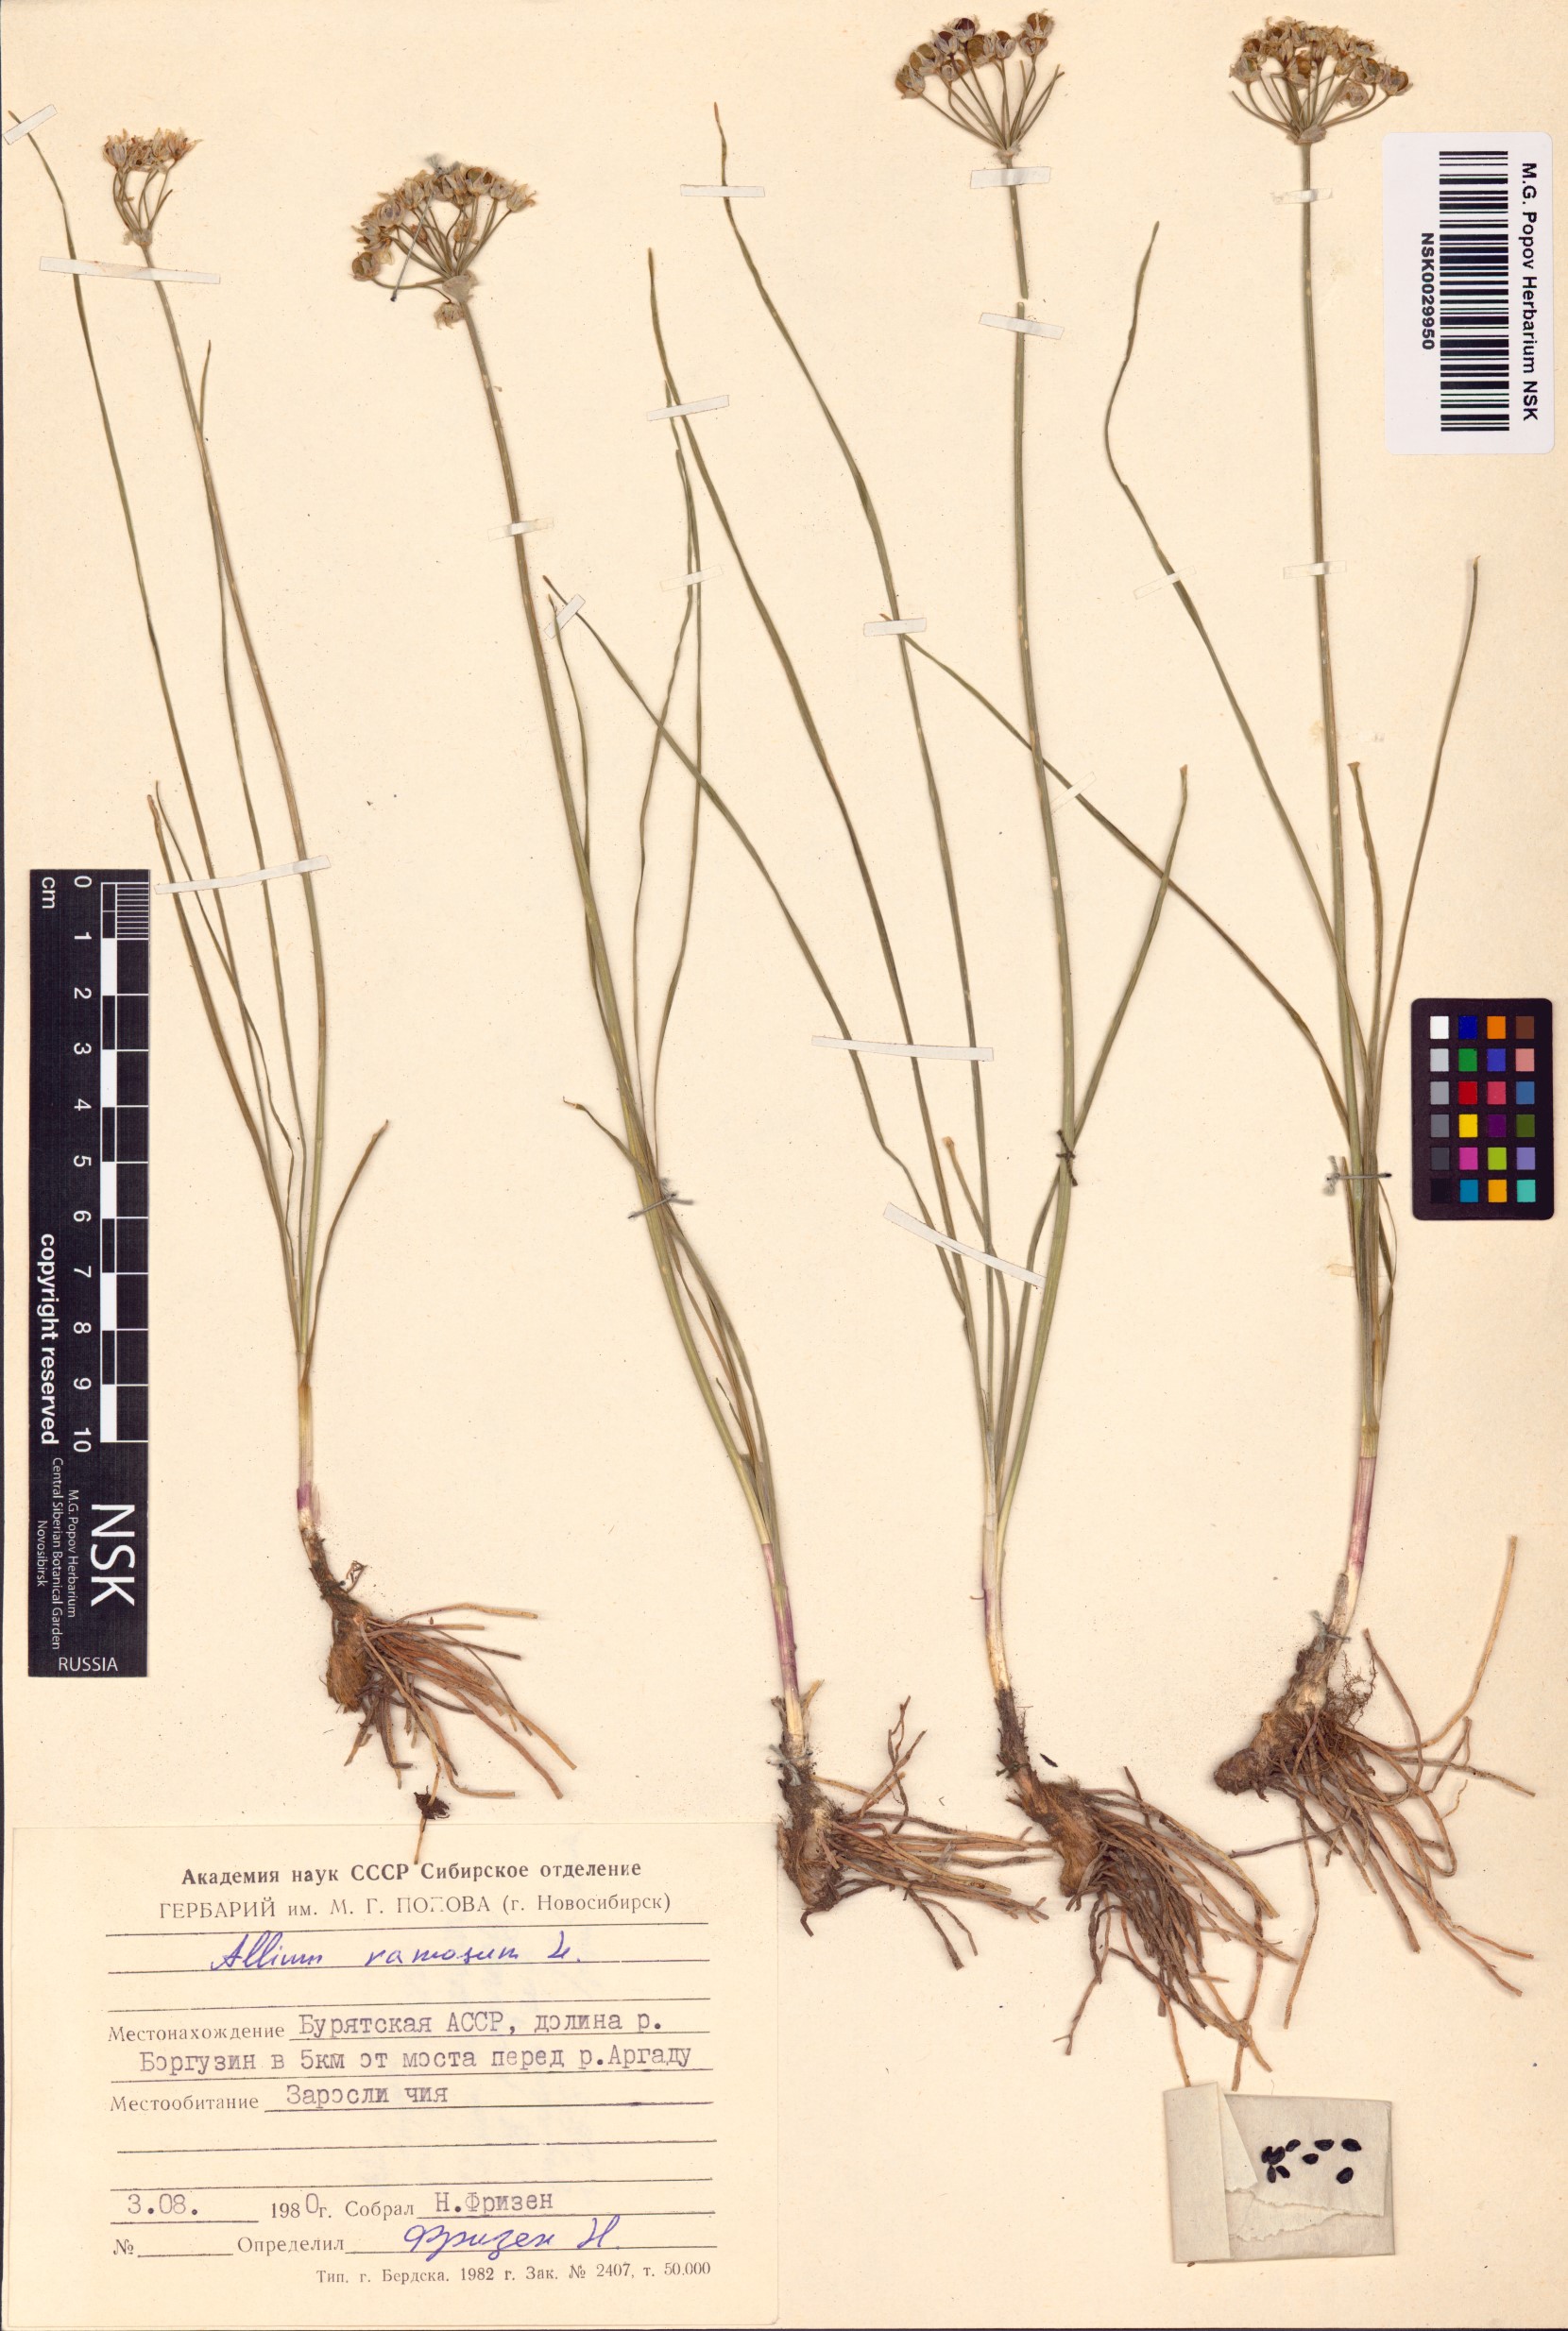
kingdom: Plantae
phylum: Tracheophyta
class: Liliopsida
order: Asparagales
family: Amaryllidaceae
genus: Allium
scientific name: Allium ramosum
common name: Fragrant garlic
